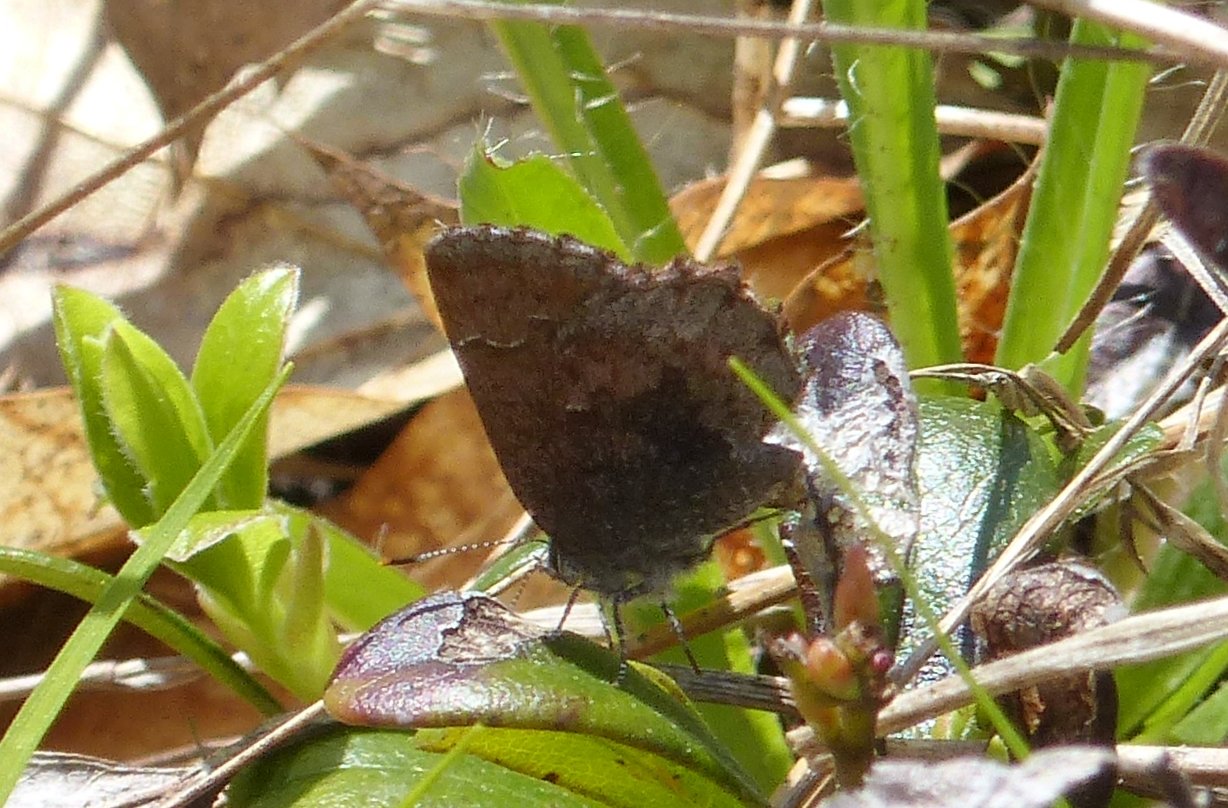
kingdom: Animalia
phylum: Arthropoda
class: Insecta
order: Lepidoptera
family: Lycaenidae
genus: Callophrys
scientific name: Callophrys polios
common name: Hoary Elfin
